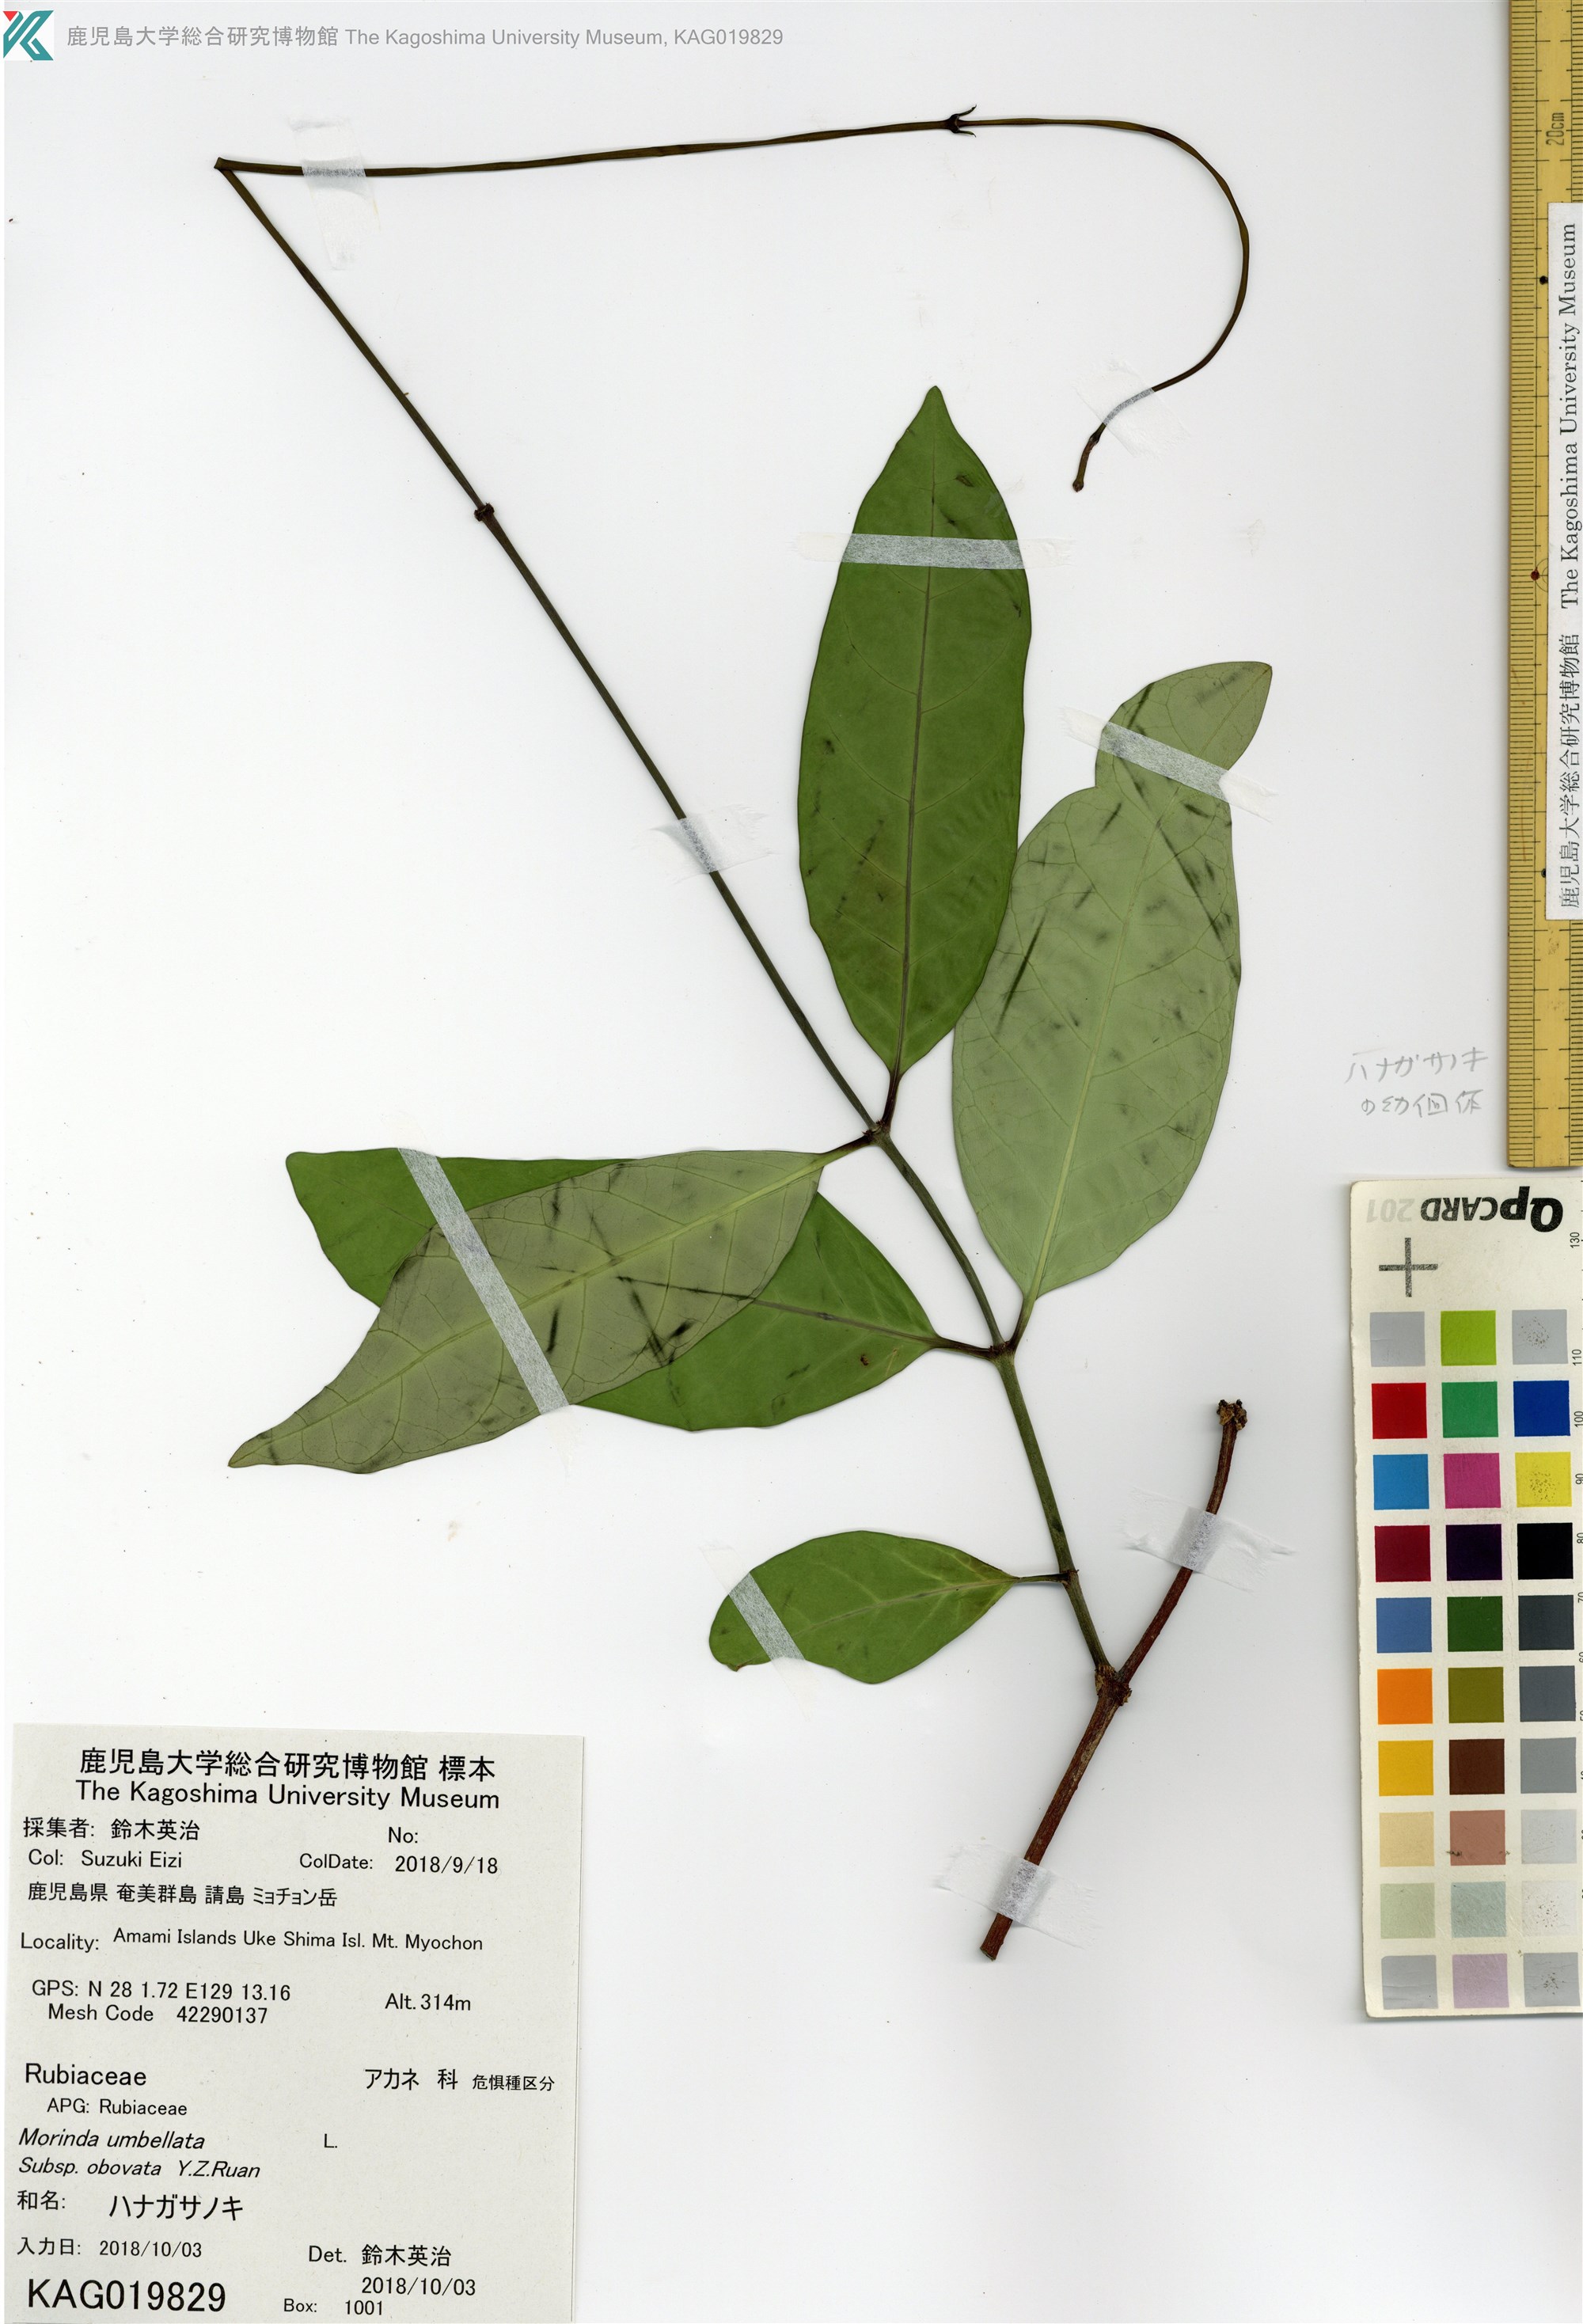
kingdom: Plantae
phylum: Tracheophyta
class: Magnoliopsida
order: Gentianales
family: Apocynaceae
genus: Anodendron
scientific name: Anodendron affine
